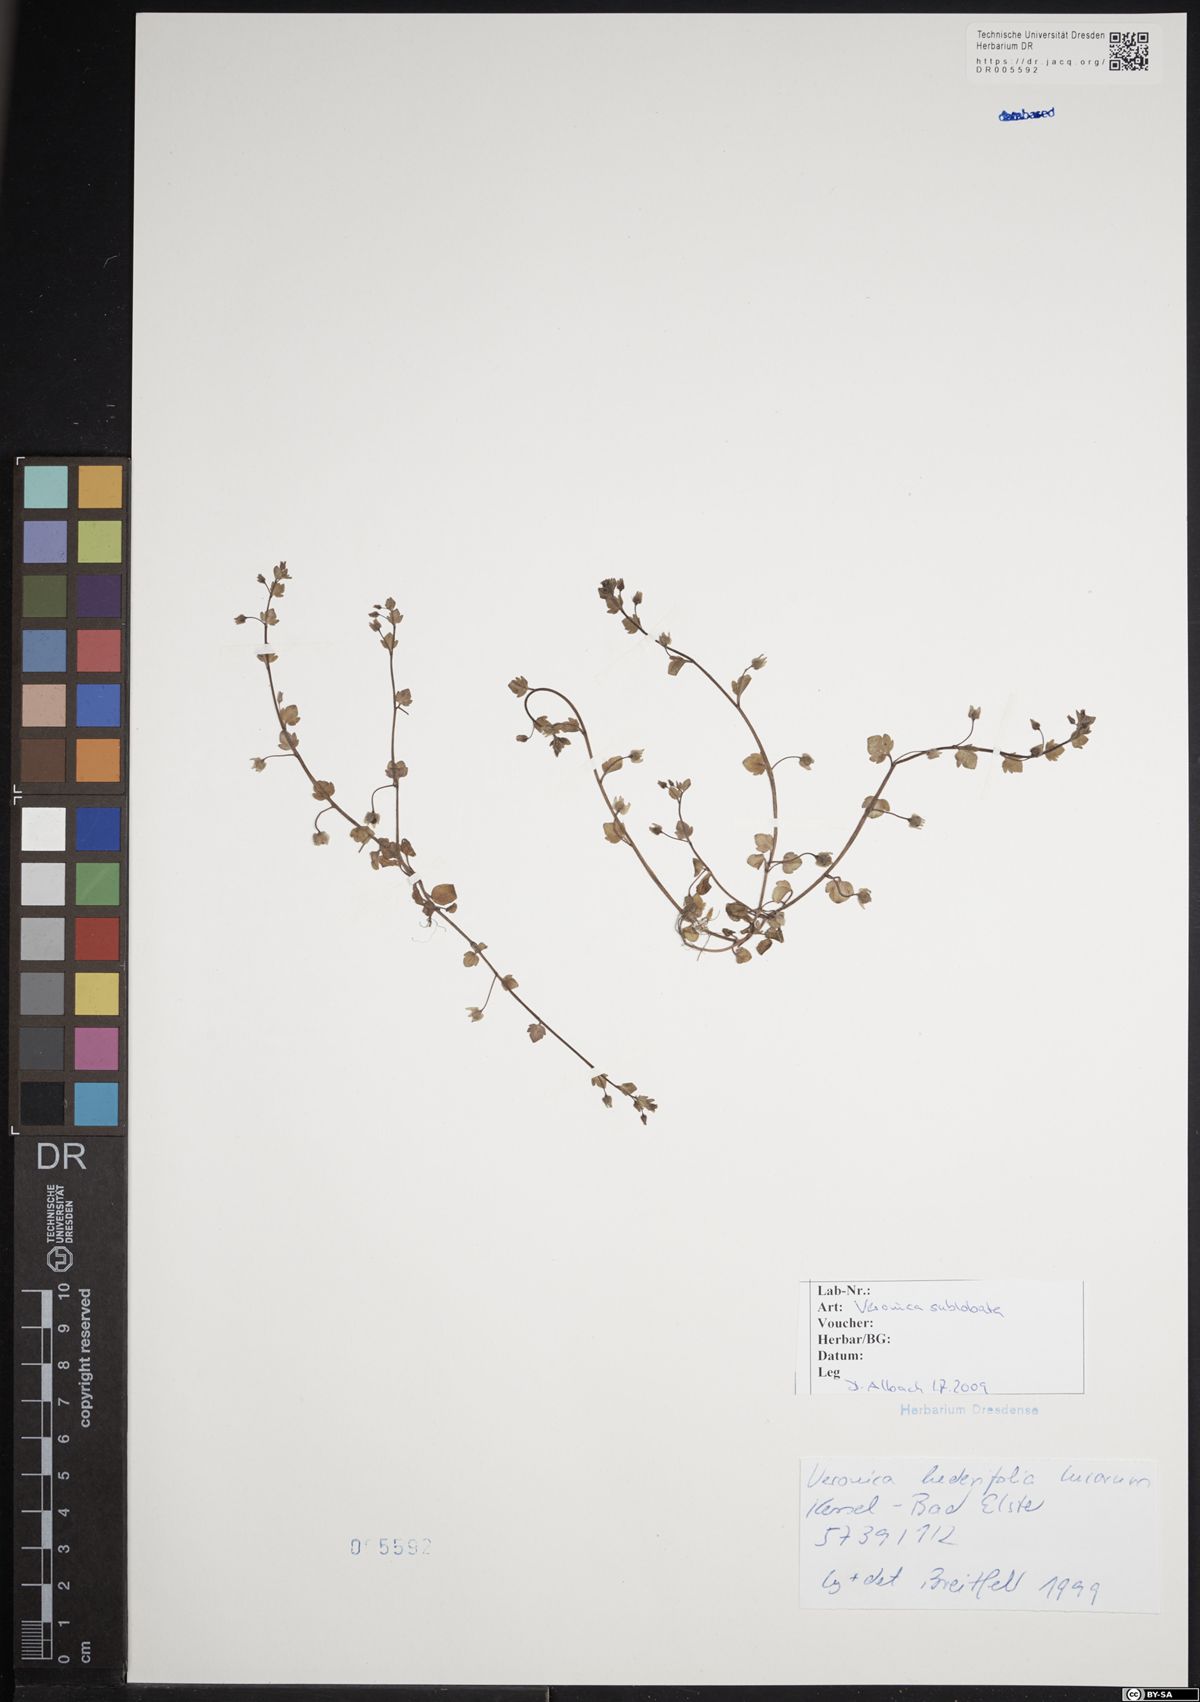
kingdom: Plantae
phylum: Tracheophyta
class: Magnoliopsida
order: Lamiales
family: Plantaginaceae
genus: Veronica
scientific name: Veronica sublobata
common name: False ivy-leaved speedwell
